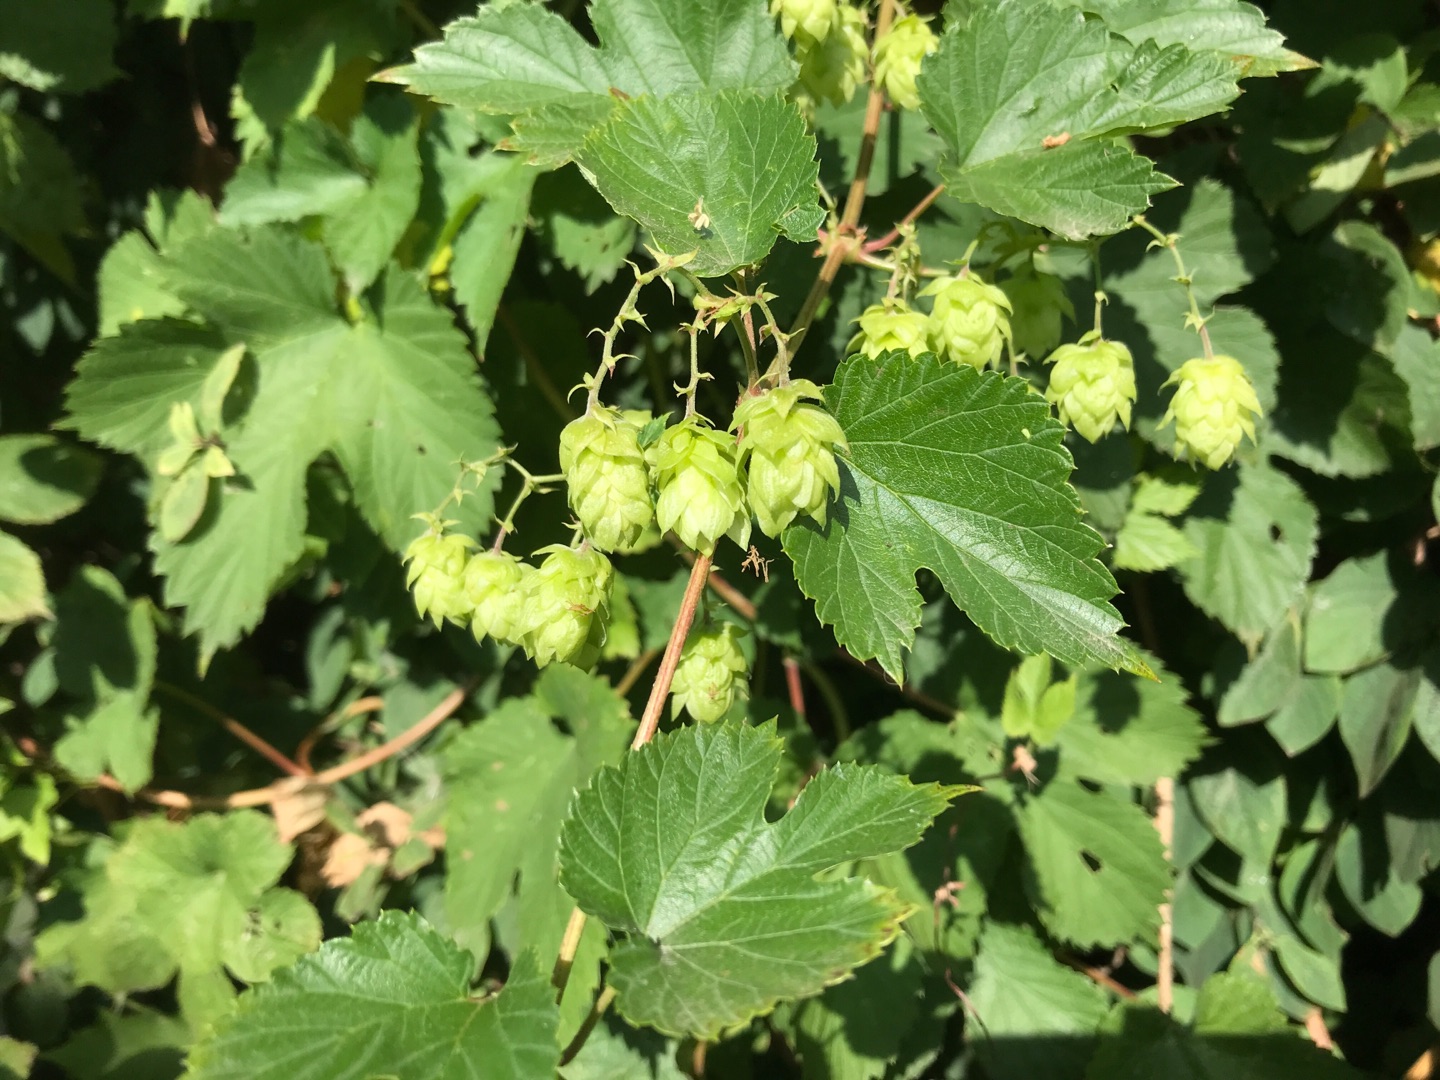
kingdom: Plantae
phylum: Tracheophyta
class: Magnoliopsida
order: Rosales
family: Cannabaceae
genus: Humulus
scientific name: Humulus lupulus
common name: Humle
